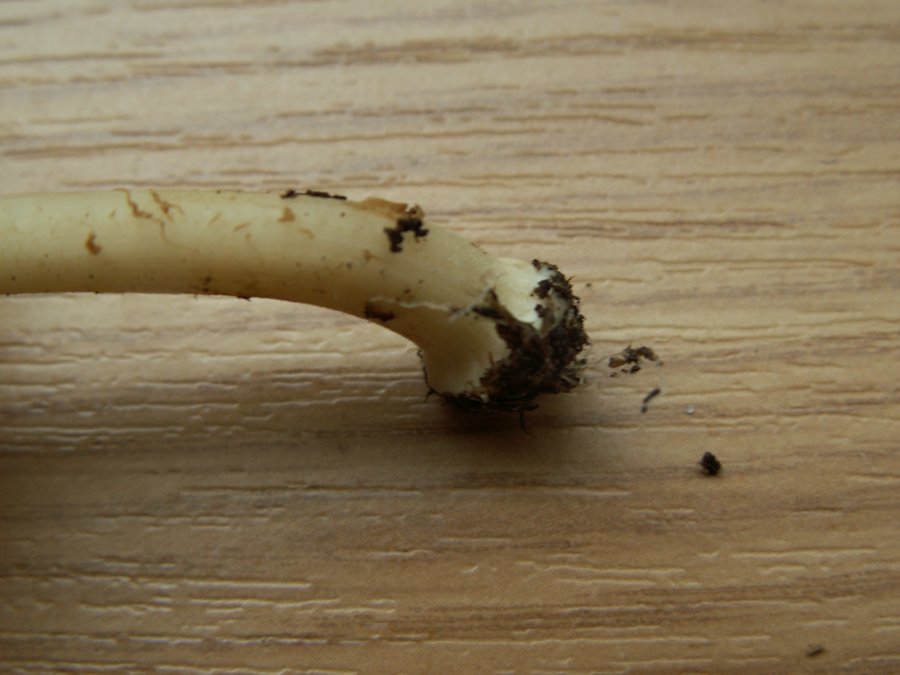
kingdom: Fungi
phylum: Basidiomycota
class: Agaricomycetes
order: Agaricales
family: Inocybaceae
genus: Inocybe
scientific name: Inocybe
